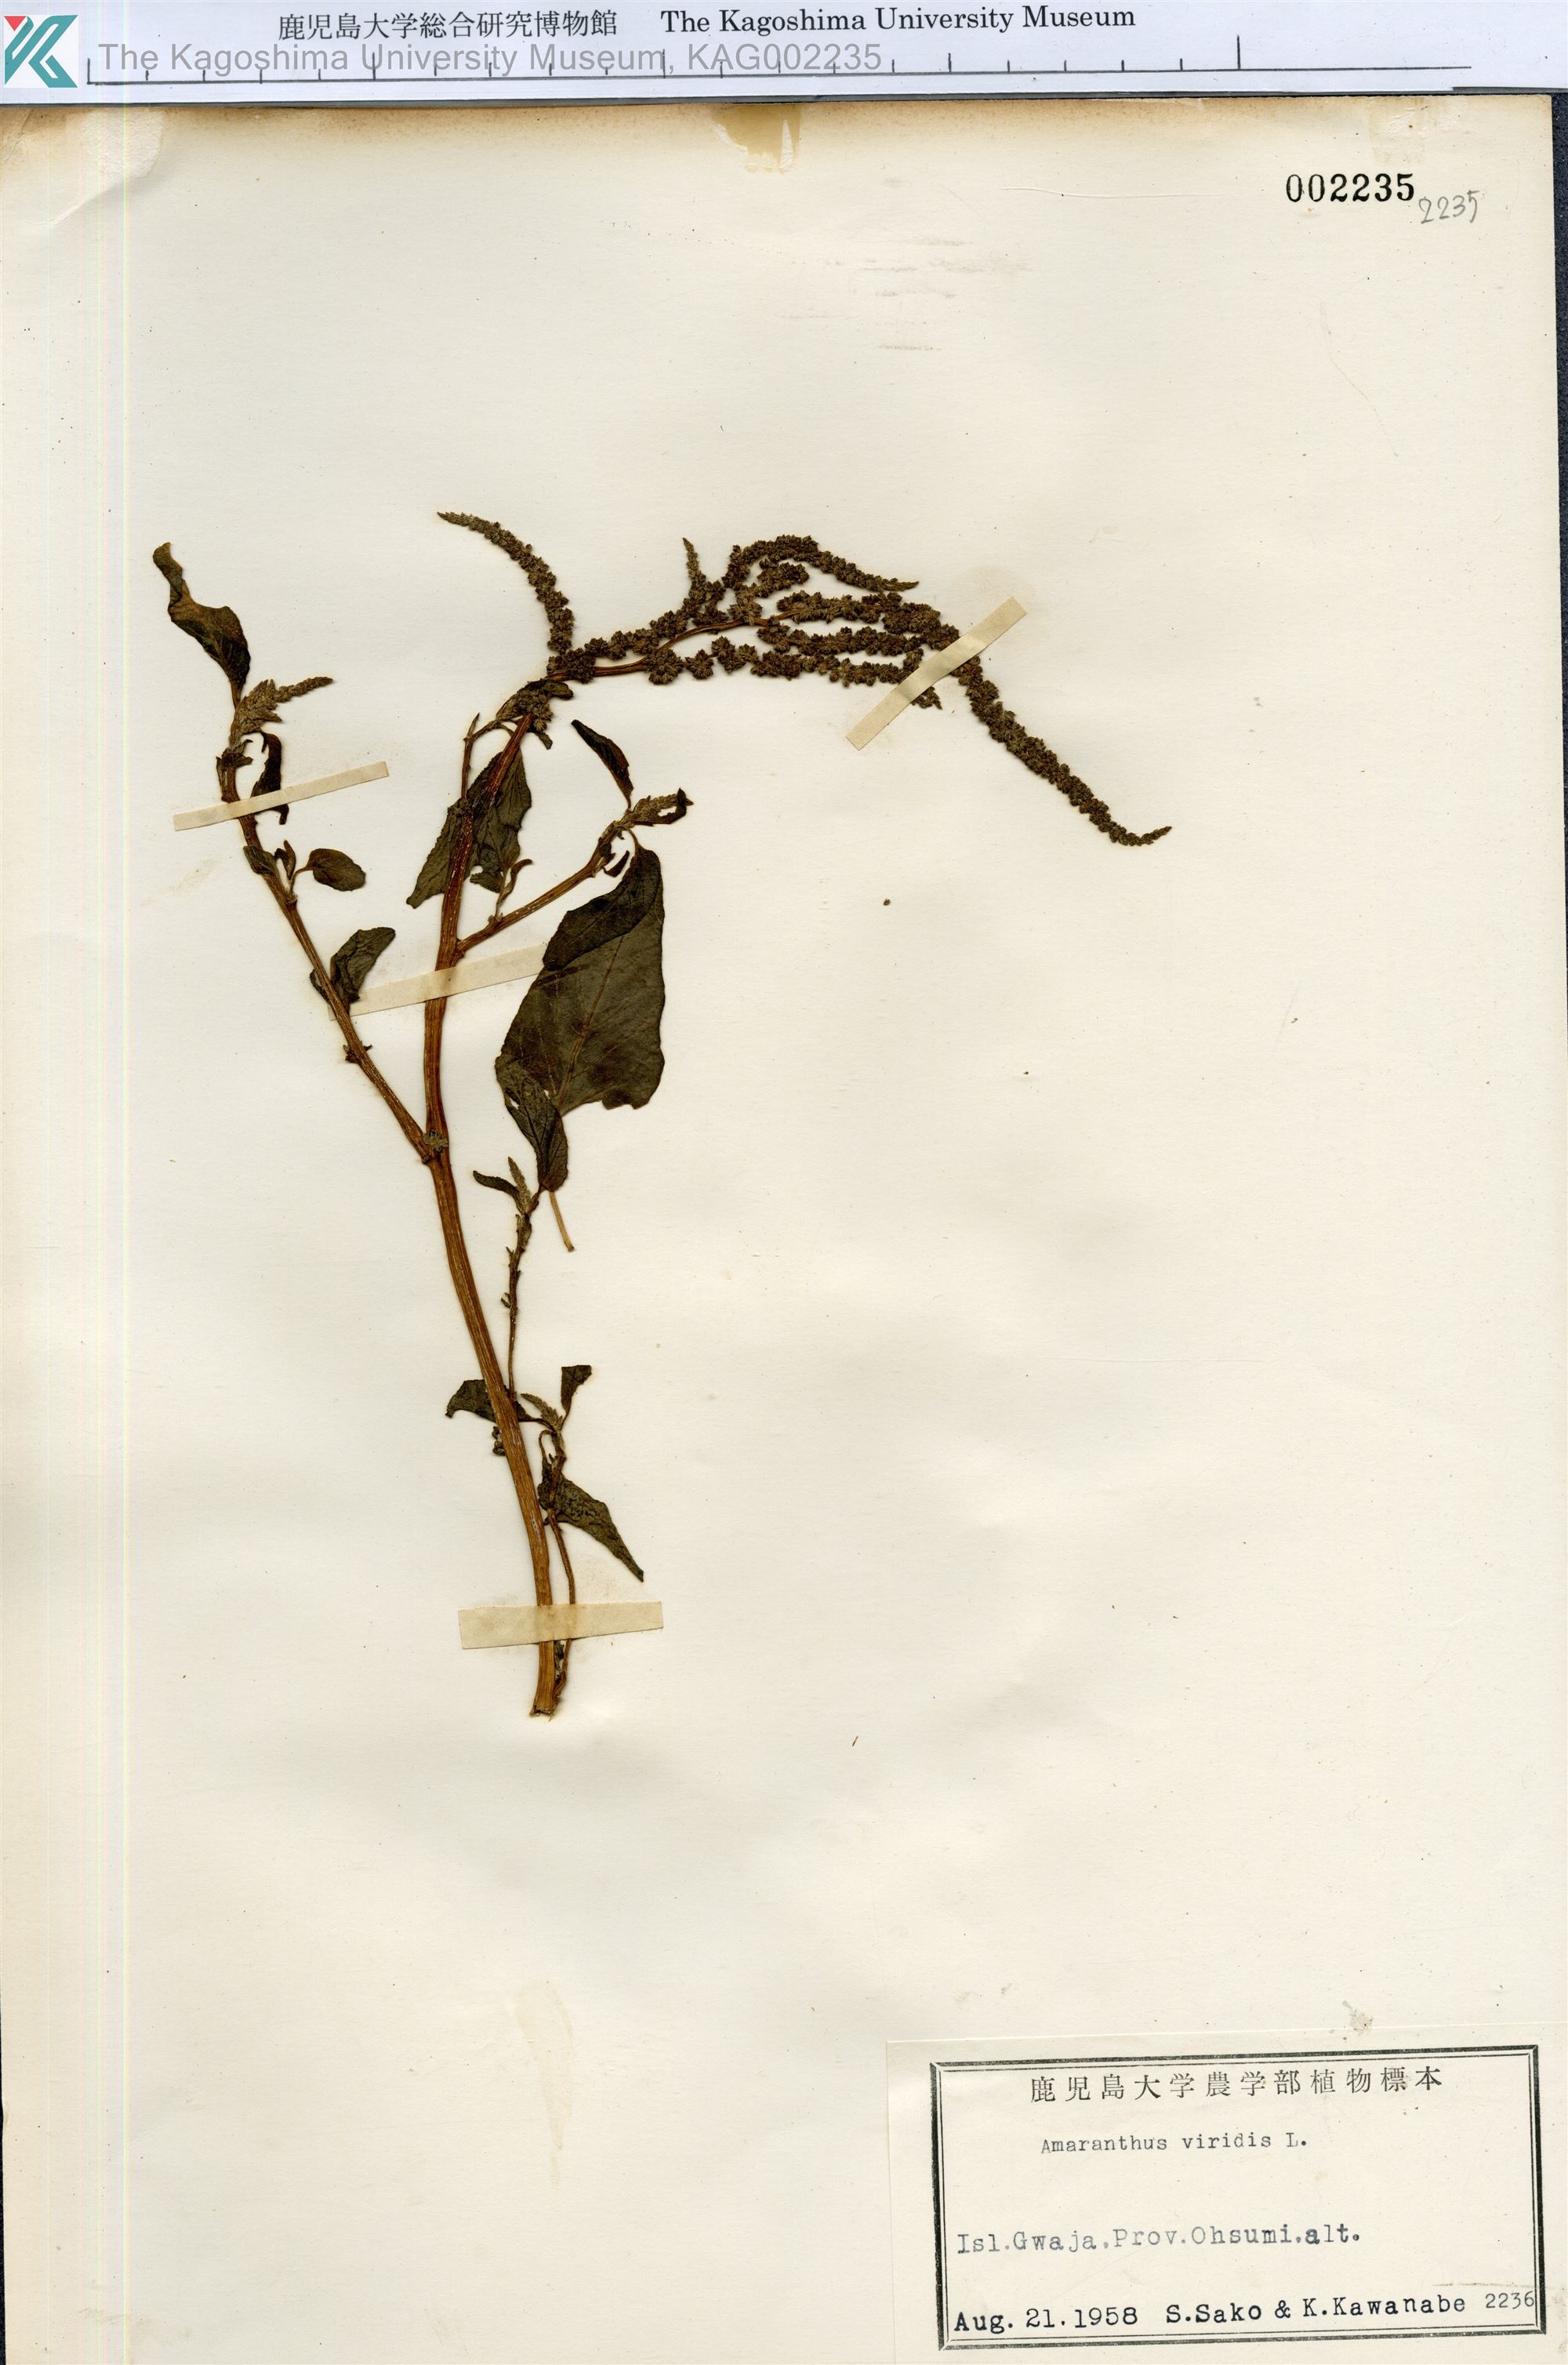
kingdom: Plantae
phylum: Tracheophyta
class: Magnoliopsida
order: Caryophyllales
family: Amaranthaceae
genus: Amaranthus
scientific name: Amaranthus viridis
